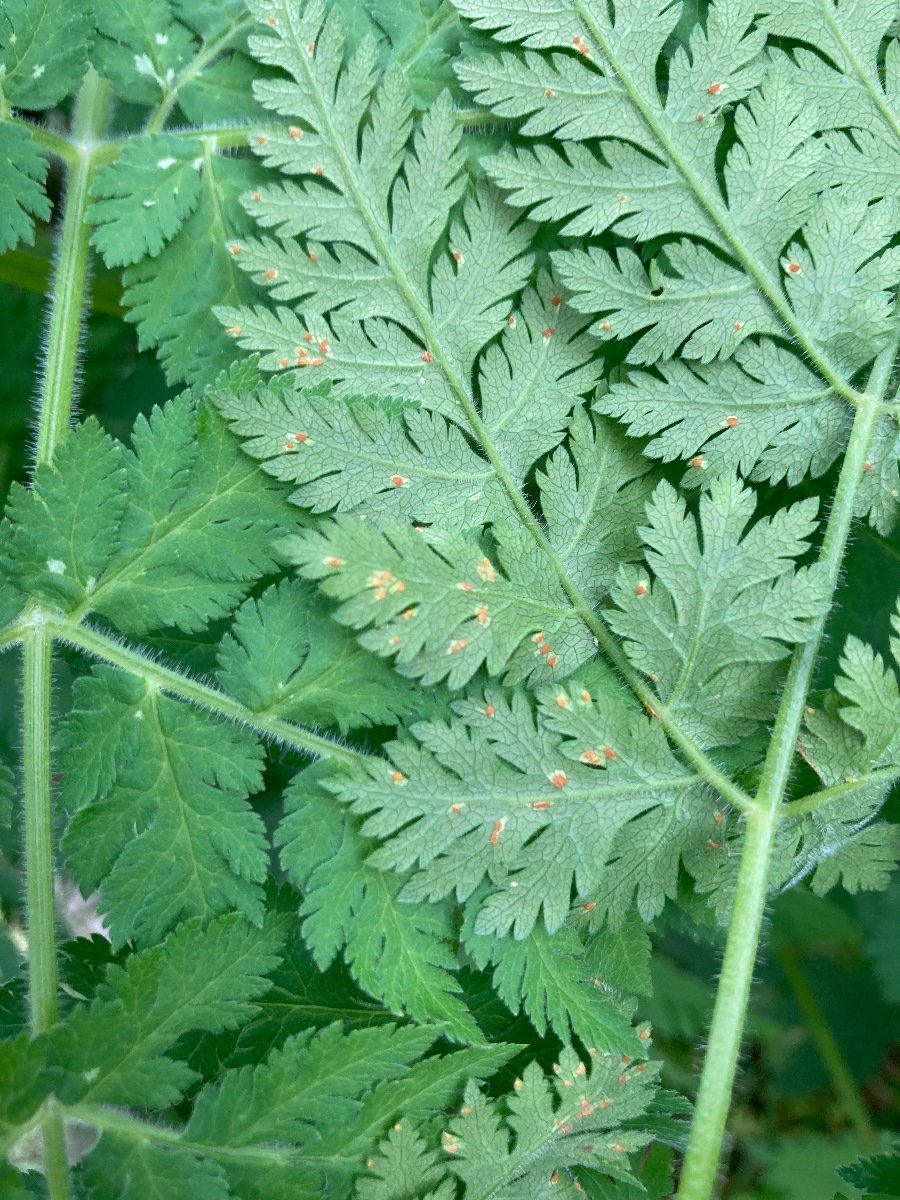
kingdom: Fungi
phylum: Basidiomycota
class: Pucciniomycetes
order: Pucciniales
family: Pucciniaceae
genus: Puccinia
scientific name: Puccinia chaerophylli
